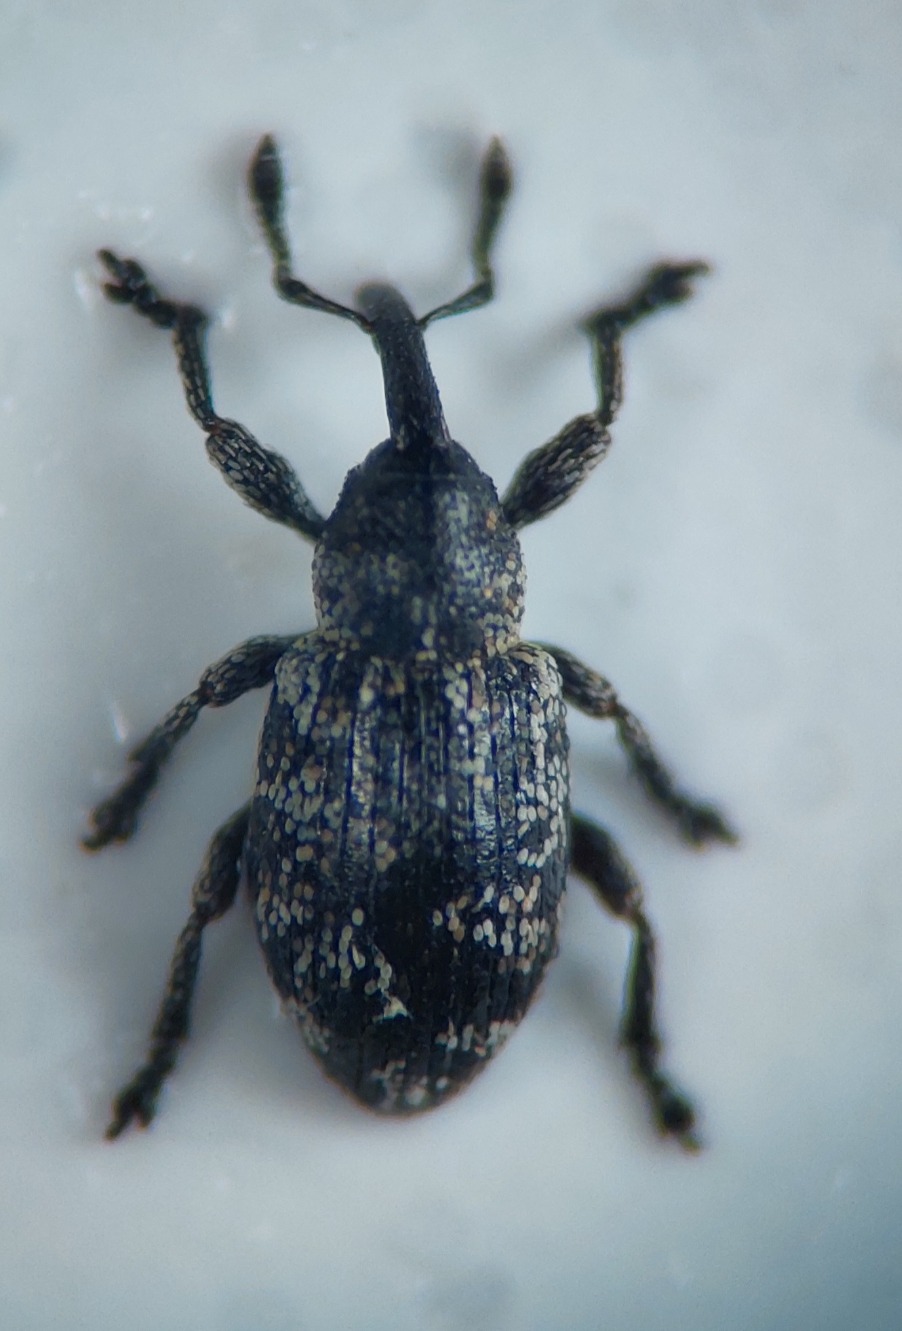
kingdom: Animalia
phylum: Arthropoda
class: Insecta
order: Coleoptera
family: Curculionidae
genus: Smicronyx
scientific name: Smicronyx reichii
